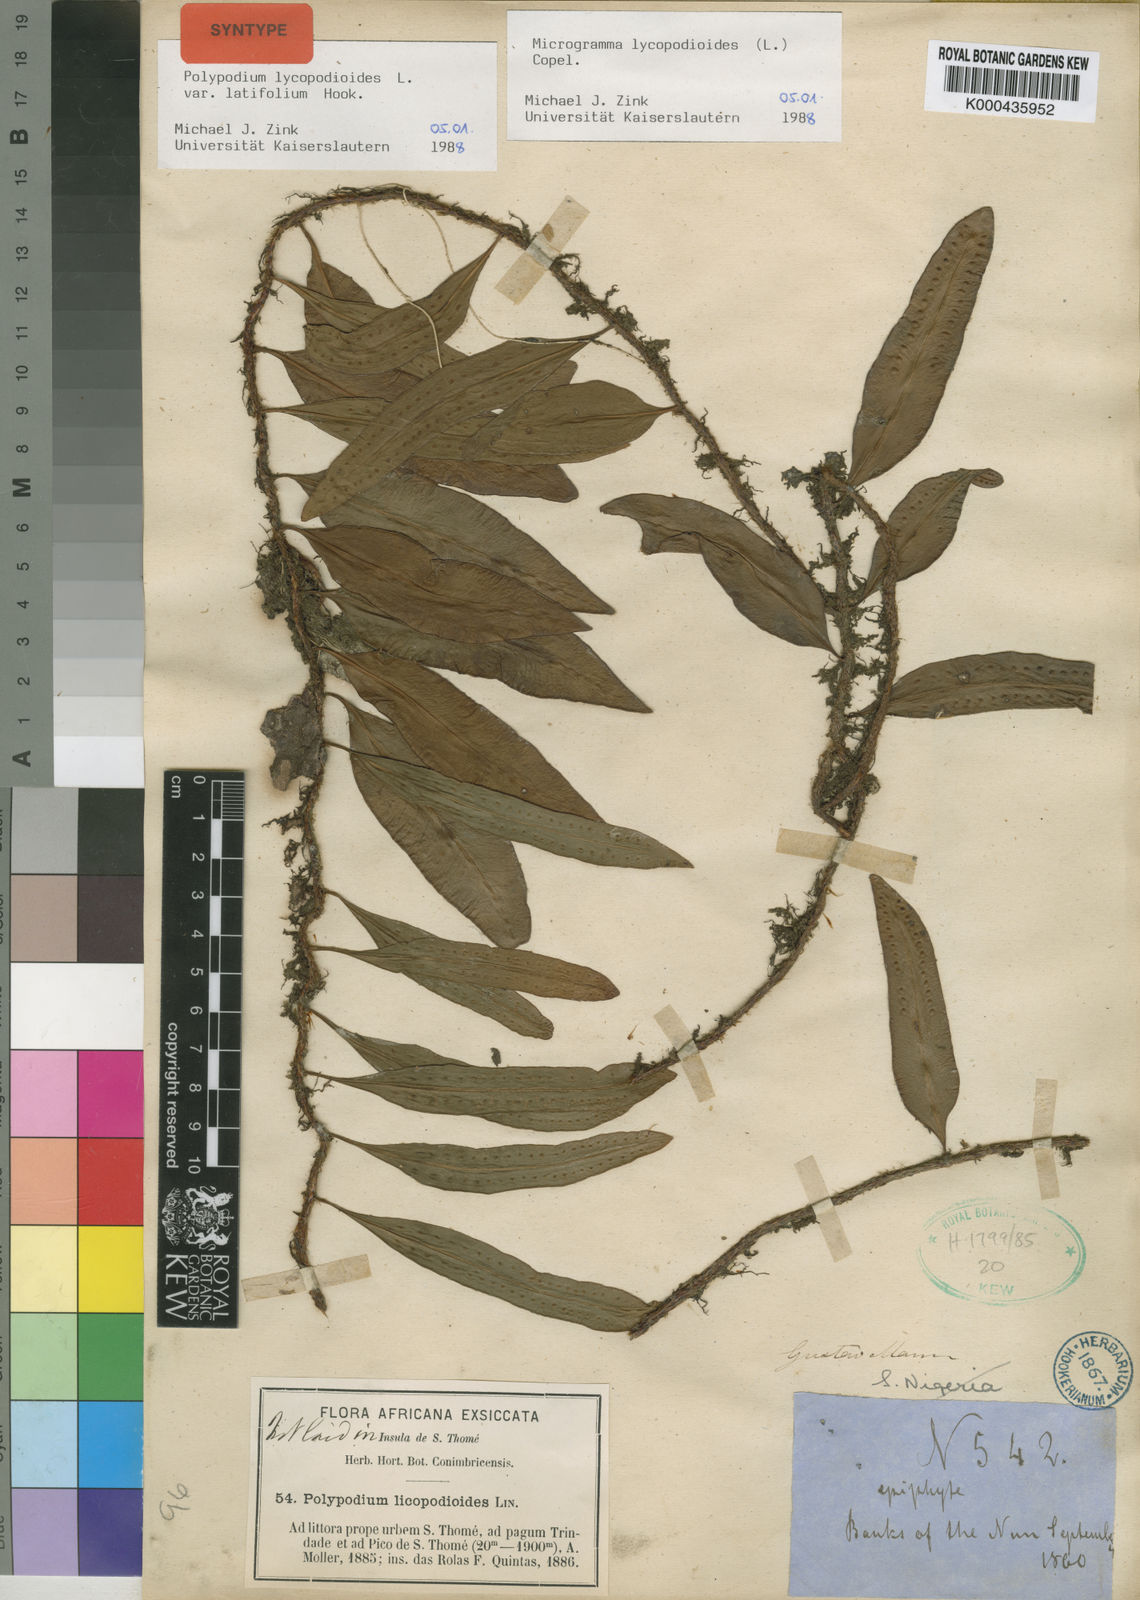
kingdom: Plantae
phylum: Tracheophyta
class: Polypodiopsida
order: Polypodiales
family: Polypodiaceae
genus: Microgramma
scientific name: Microgramma lycopodioides
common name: Bastard catclaw
